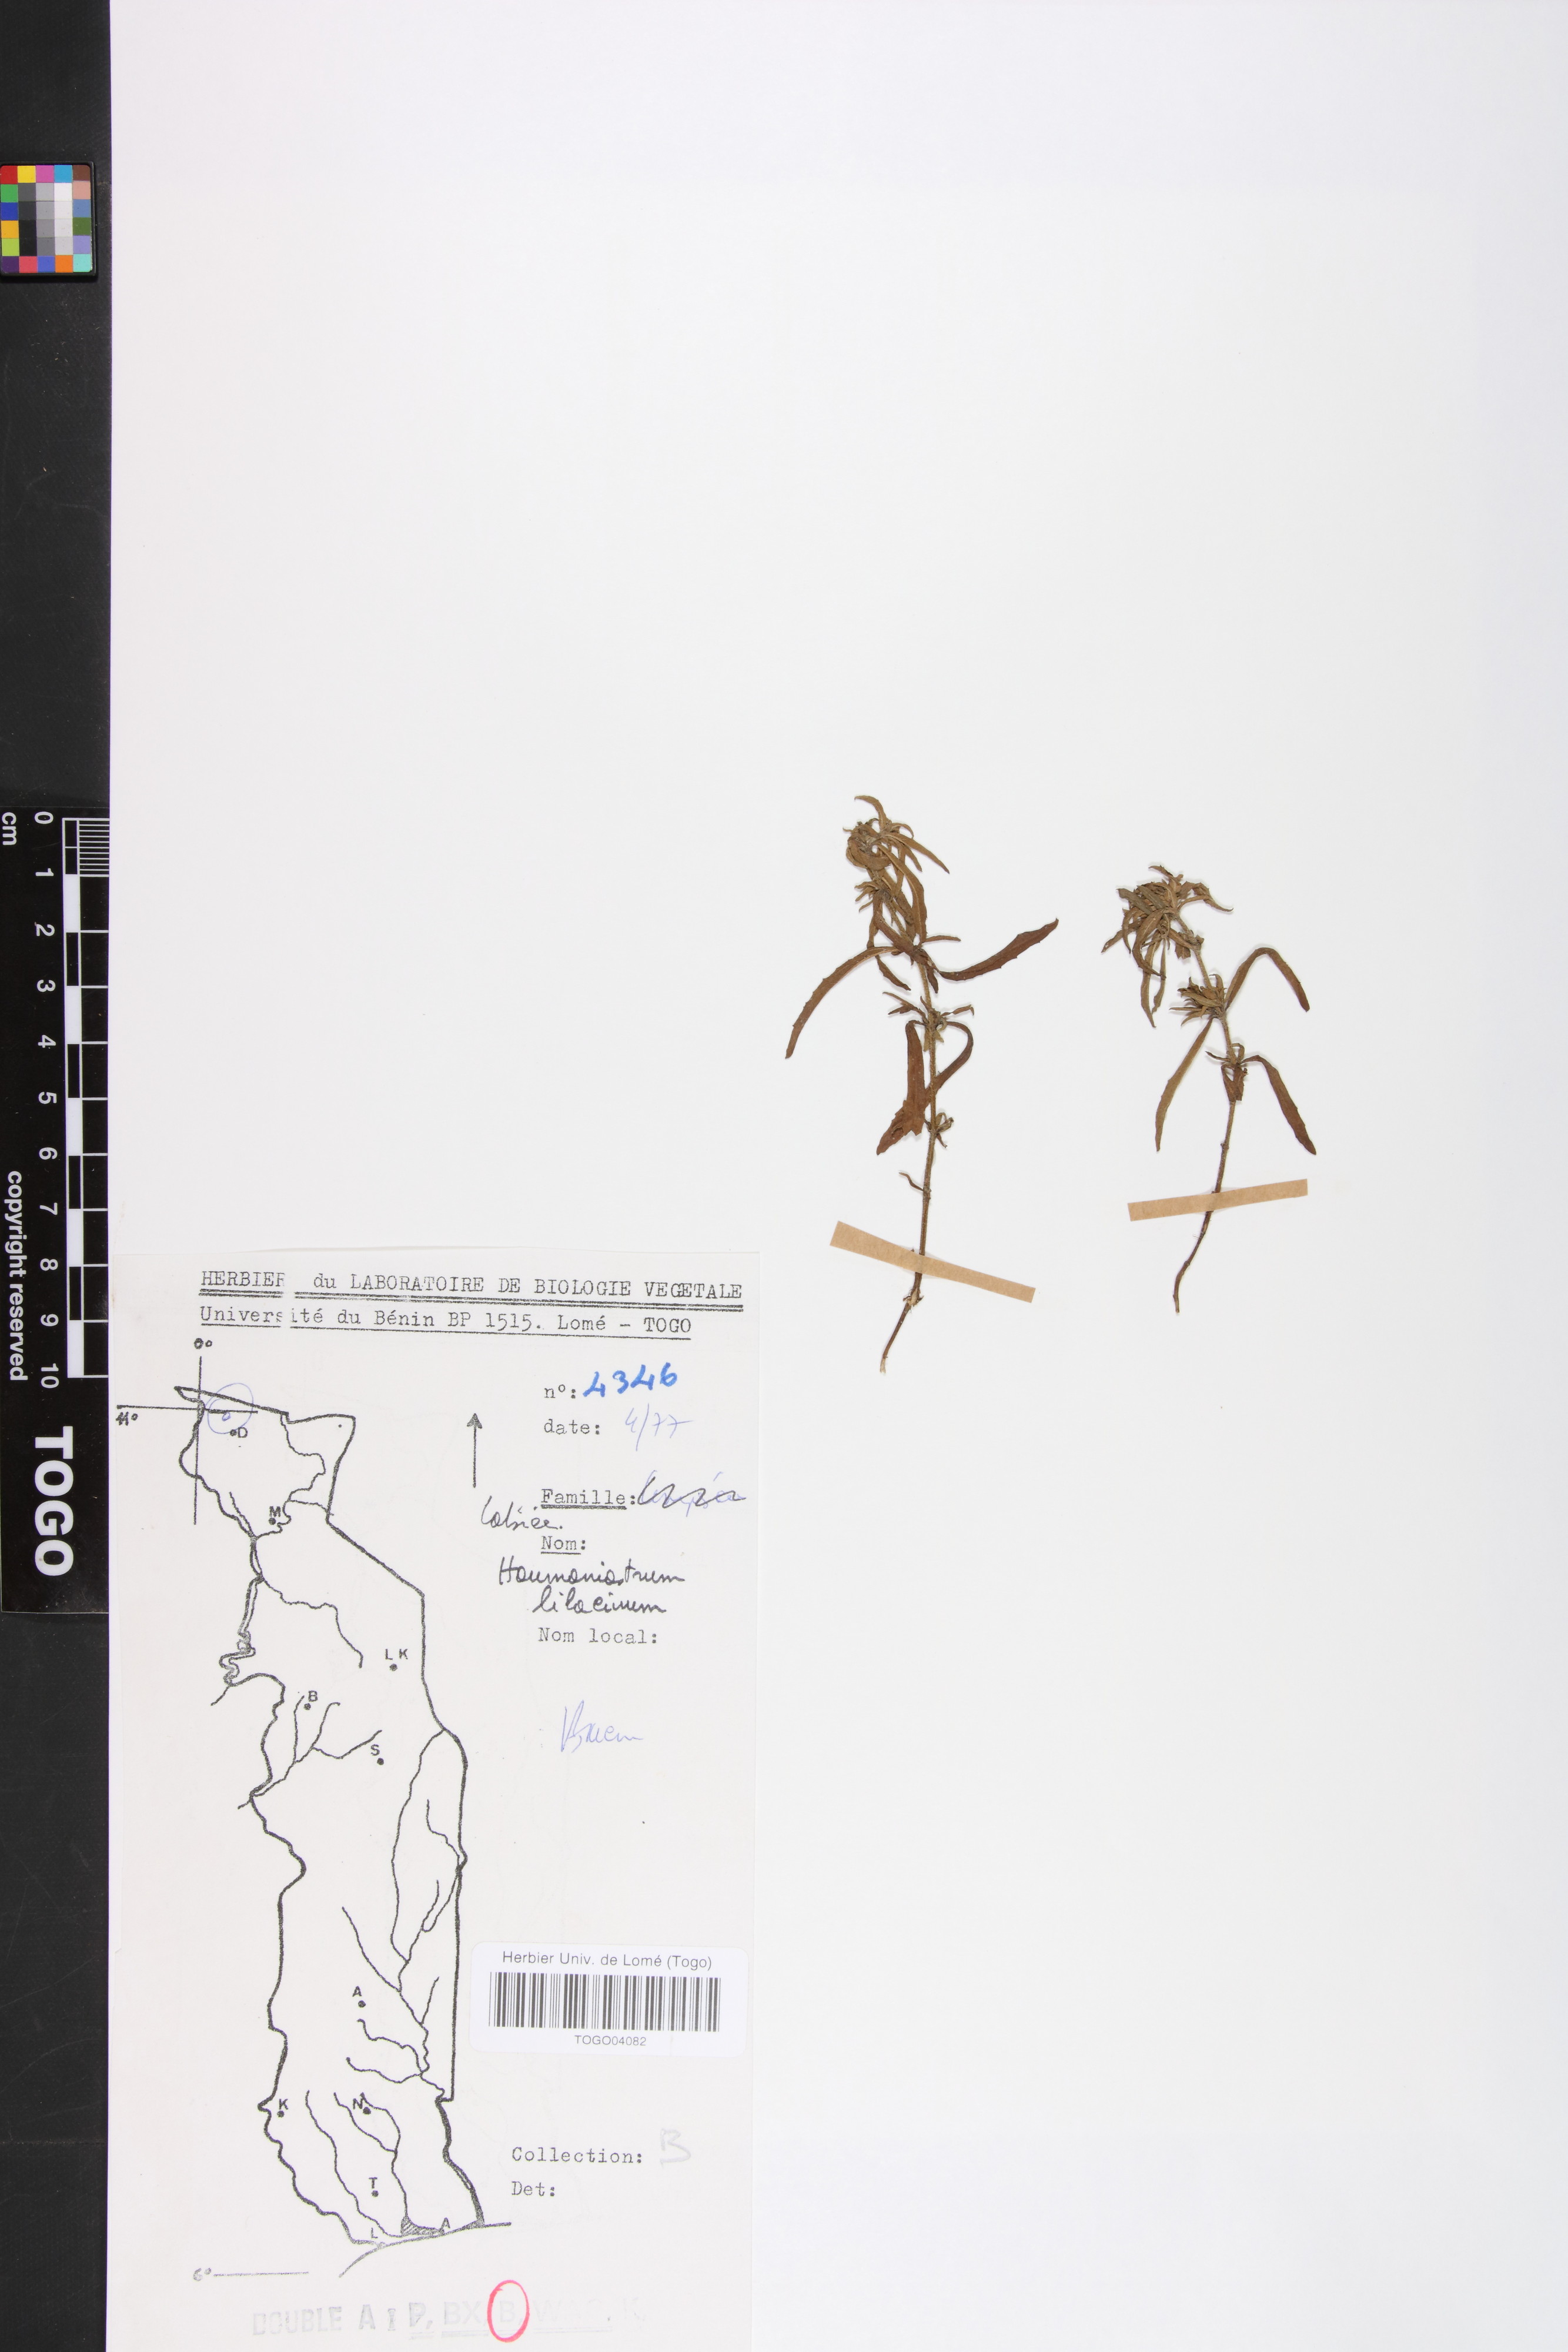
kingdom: Plantae
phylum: Tracheophyta
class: Magnoliopsida
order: Lamiales
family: Lamiaceae
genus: Haumaniastrum
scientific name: Haumaniastrum caeruleum
